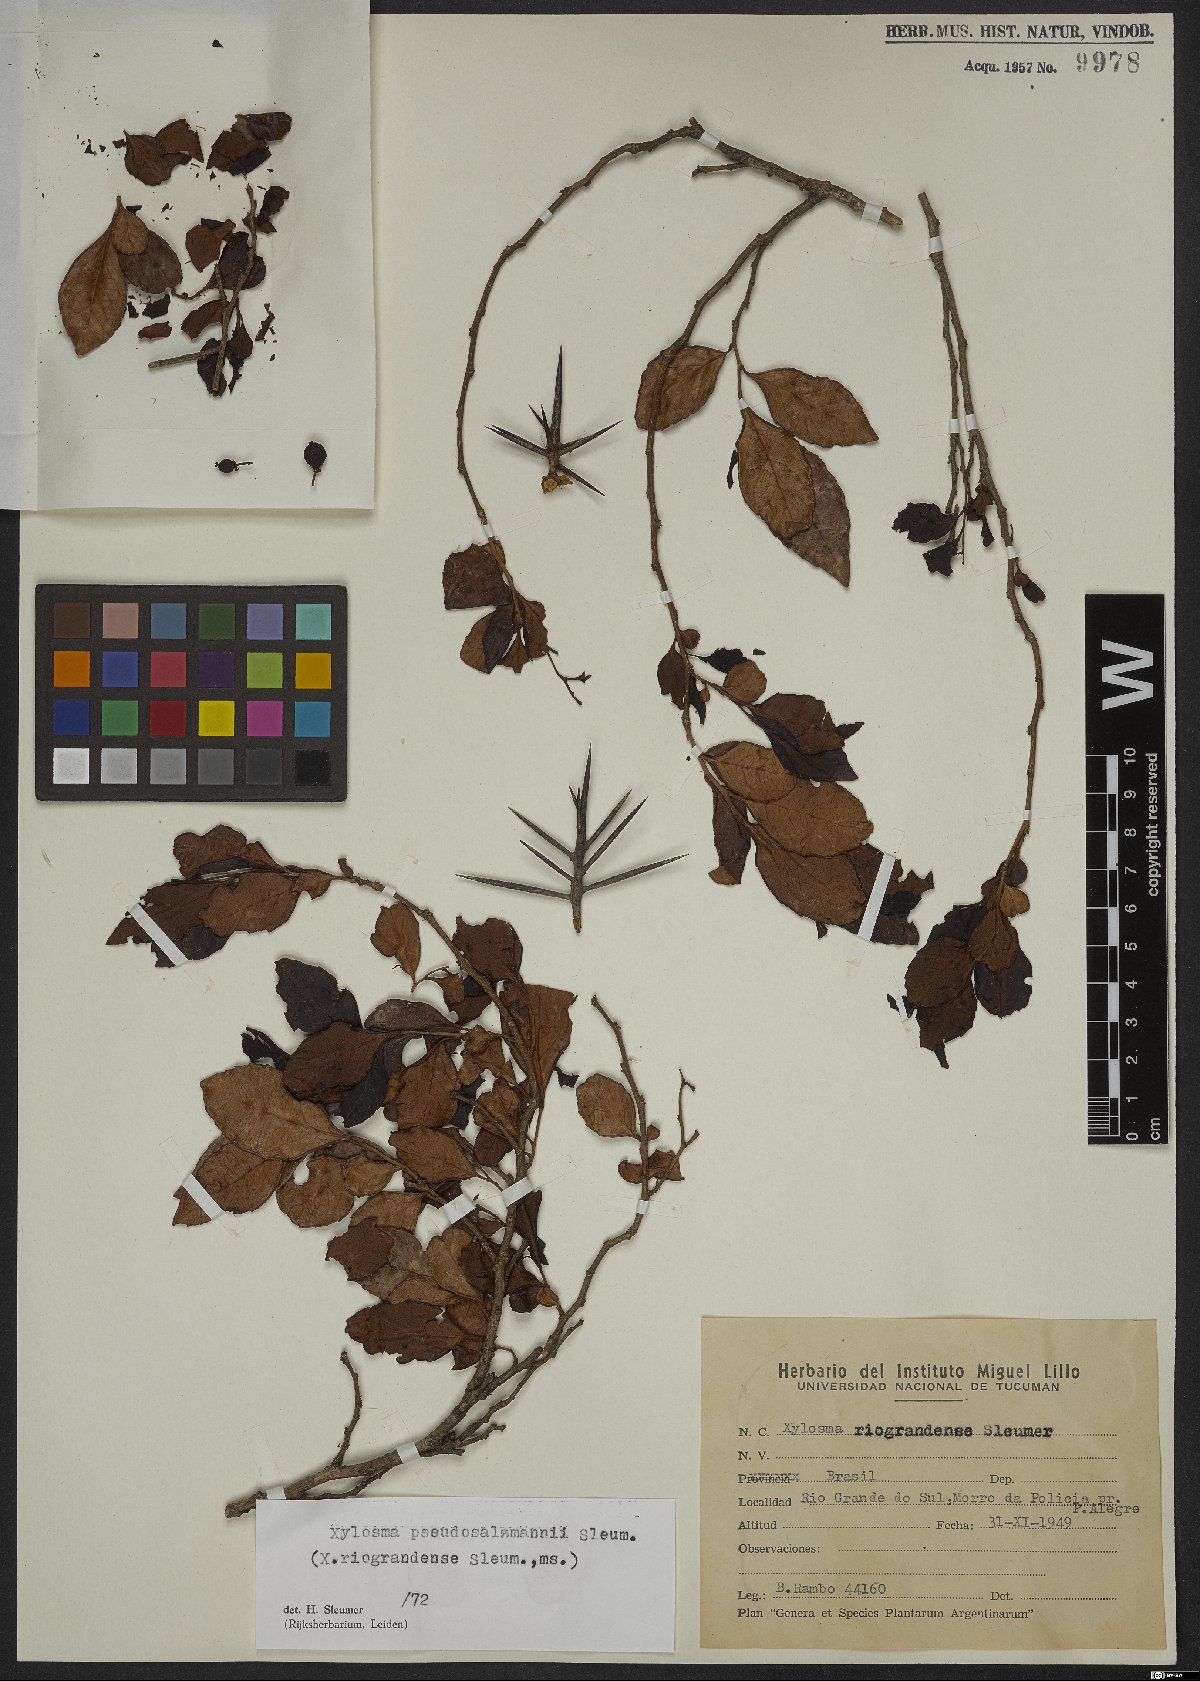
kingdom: Plantae
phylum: Tracheophyta
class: Magnoliopsida
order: Malpighiales
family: Salicaceae
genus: Xylosma
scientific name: Xylosma pseudosalzmannii
